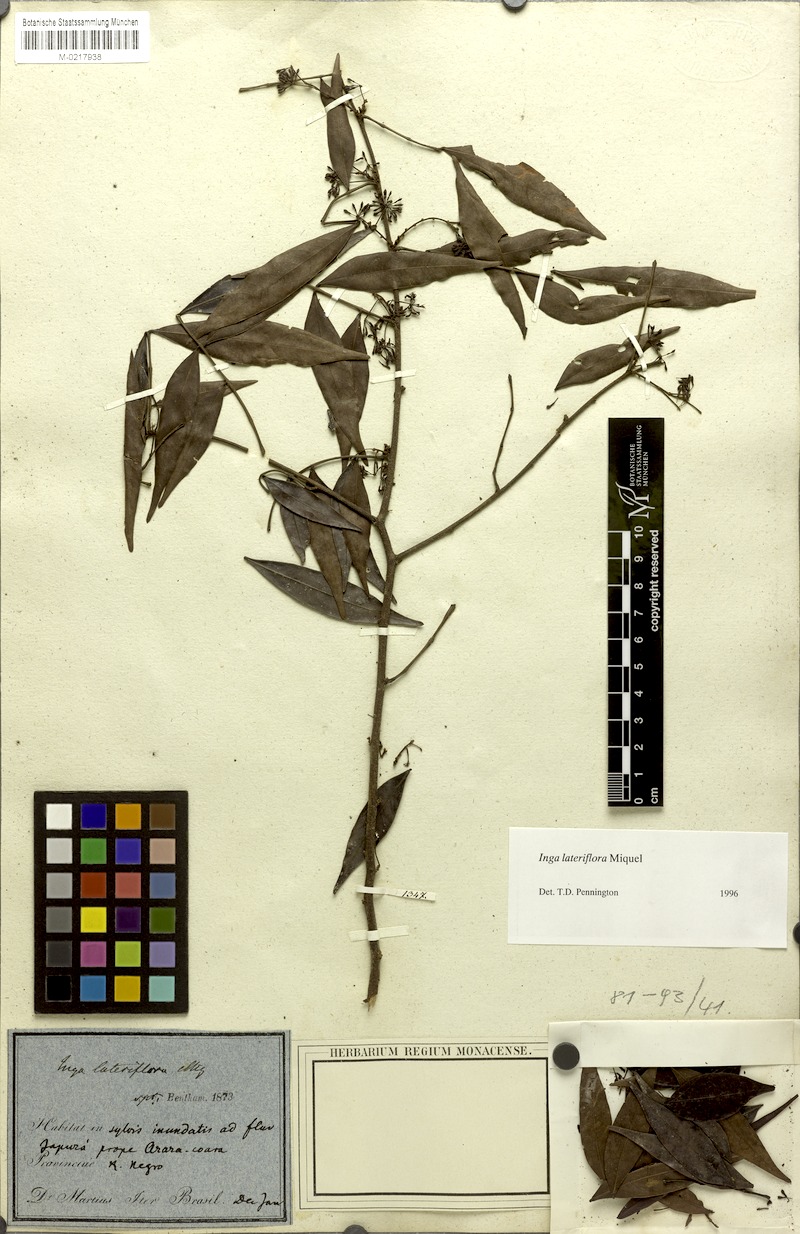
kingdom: Plantae
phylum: Tracheophyta
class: Magnoliopsida
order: Fabales
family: Fabaceae
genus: Inga
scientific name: Inga lateriflora
